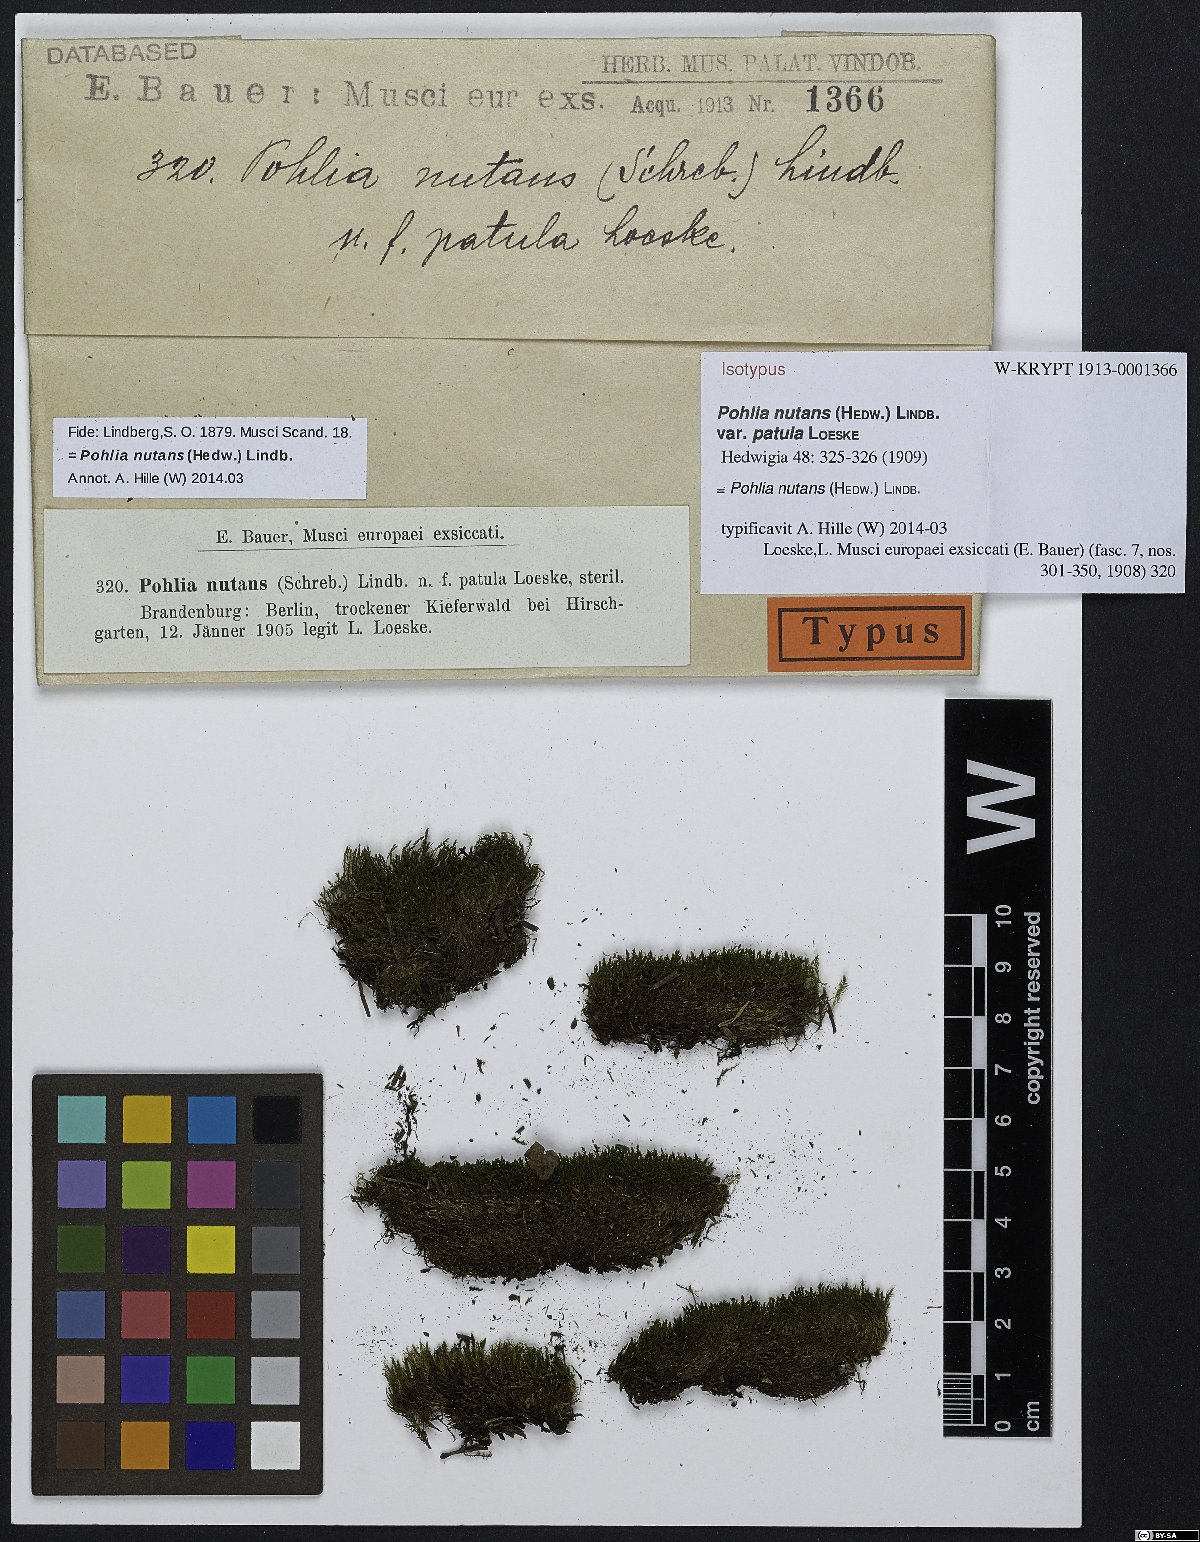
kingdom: Plantae
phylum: Bryophyta
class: Bryopsida
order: Bryales
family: Mniaceae
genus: Pohlia
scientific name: Pohlia nutans
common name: Nodding thread-moss
